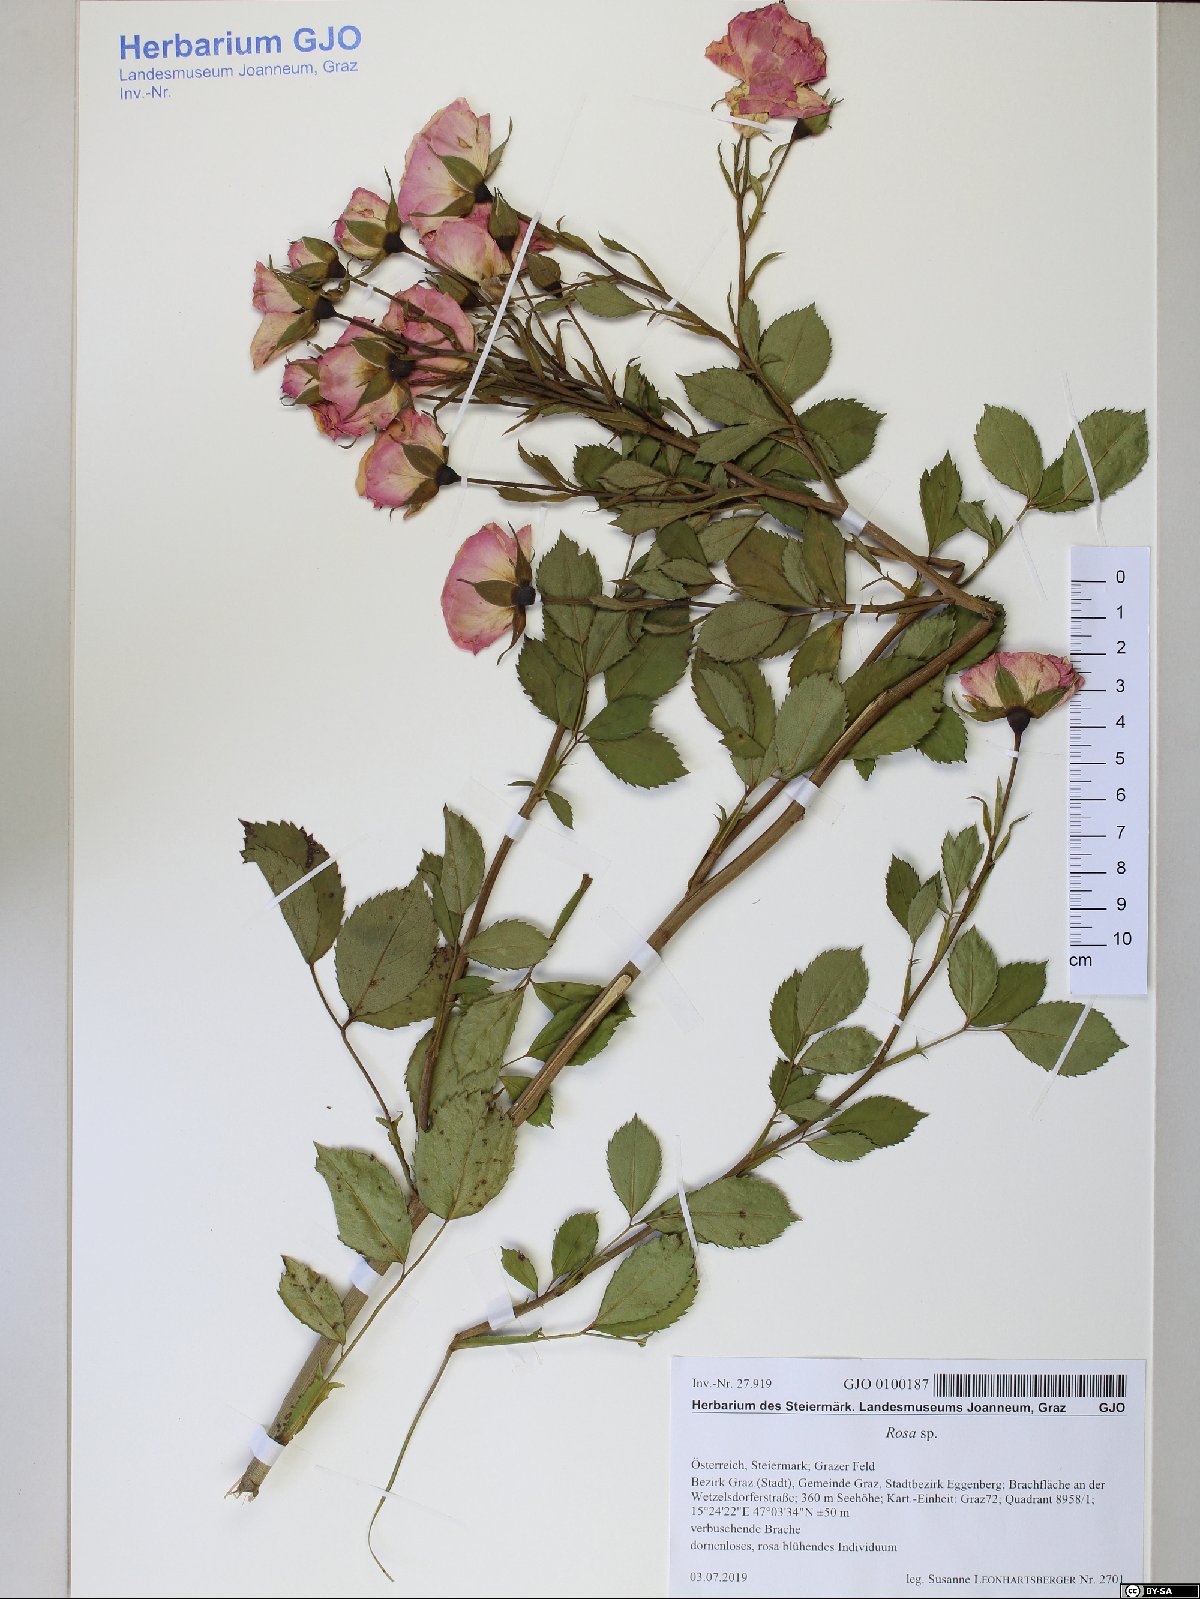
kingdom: Plantae
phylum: Tracheophyta
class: Magnoliopsida
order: Rosales
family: Rosaceae
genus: Rosa
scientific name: Rosa
